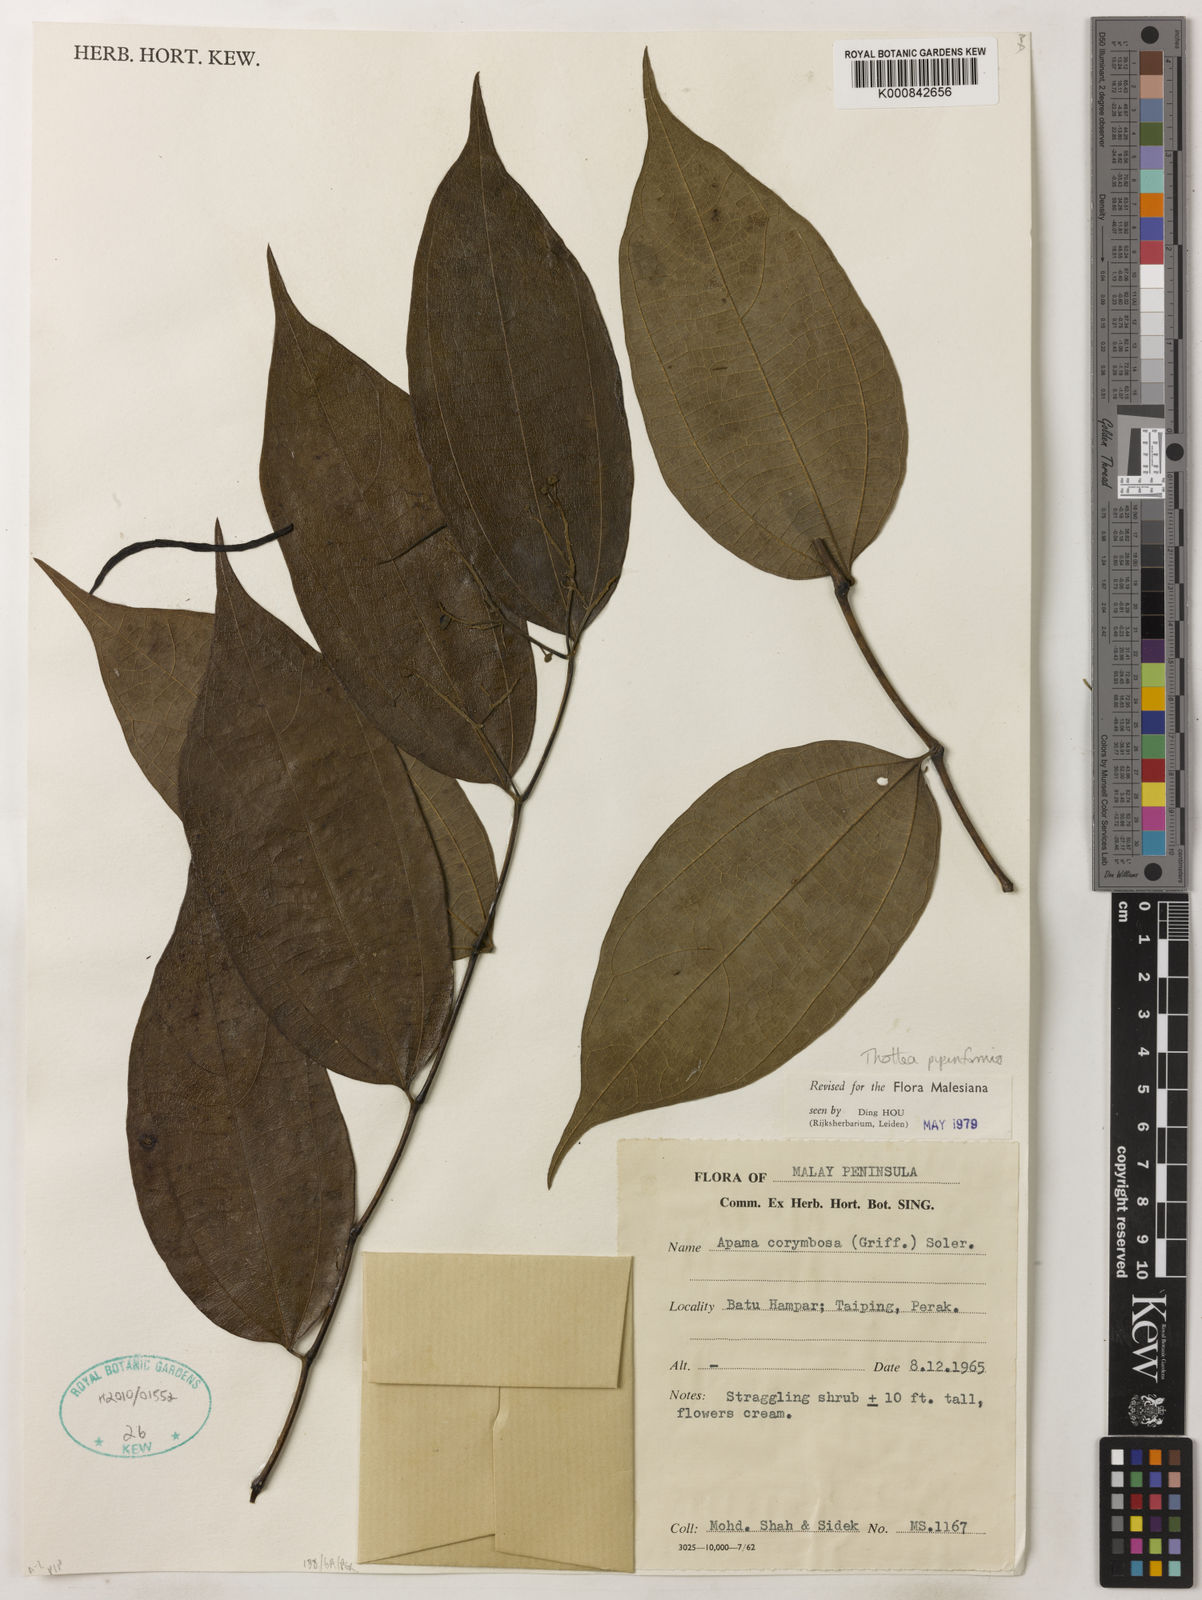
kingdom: Plantae
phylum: Tracheophyta
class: Magnoliopsida
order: Piperales
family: Aristolochiaceae
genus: Thottea
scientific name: Thottea piperiformis
